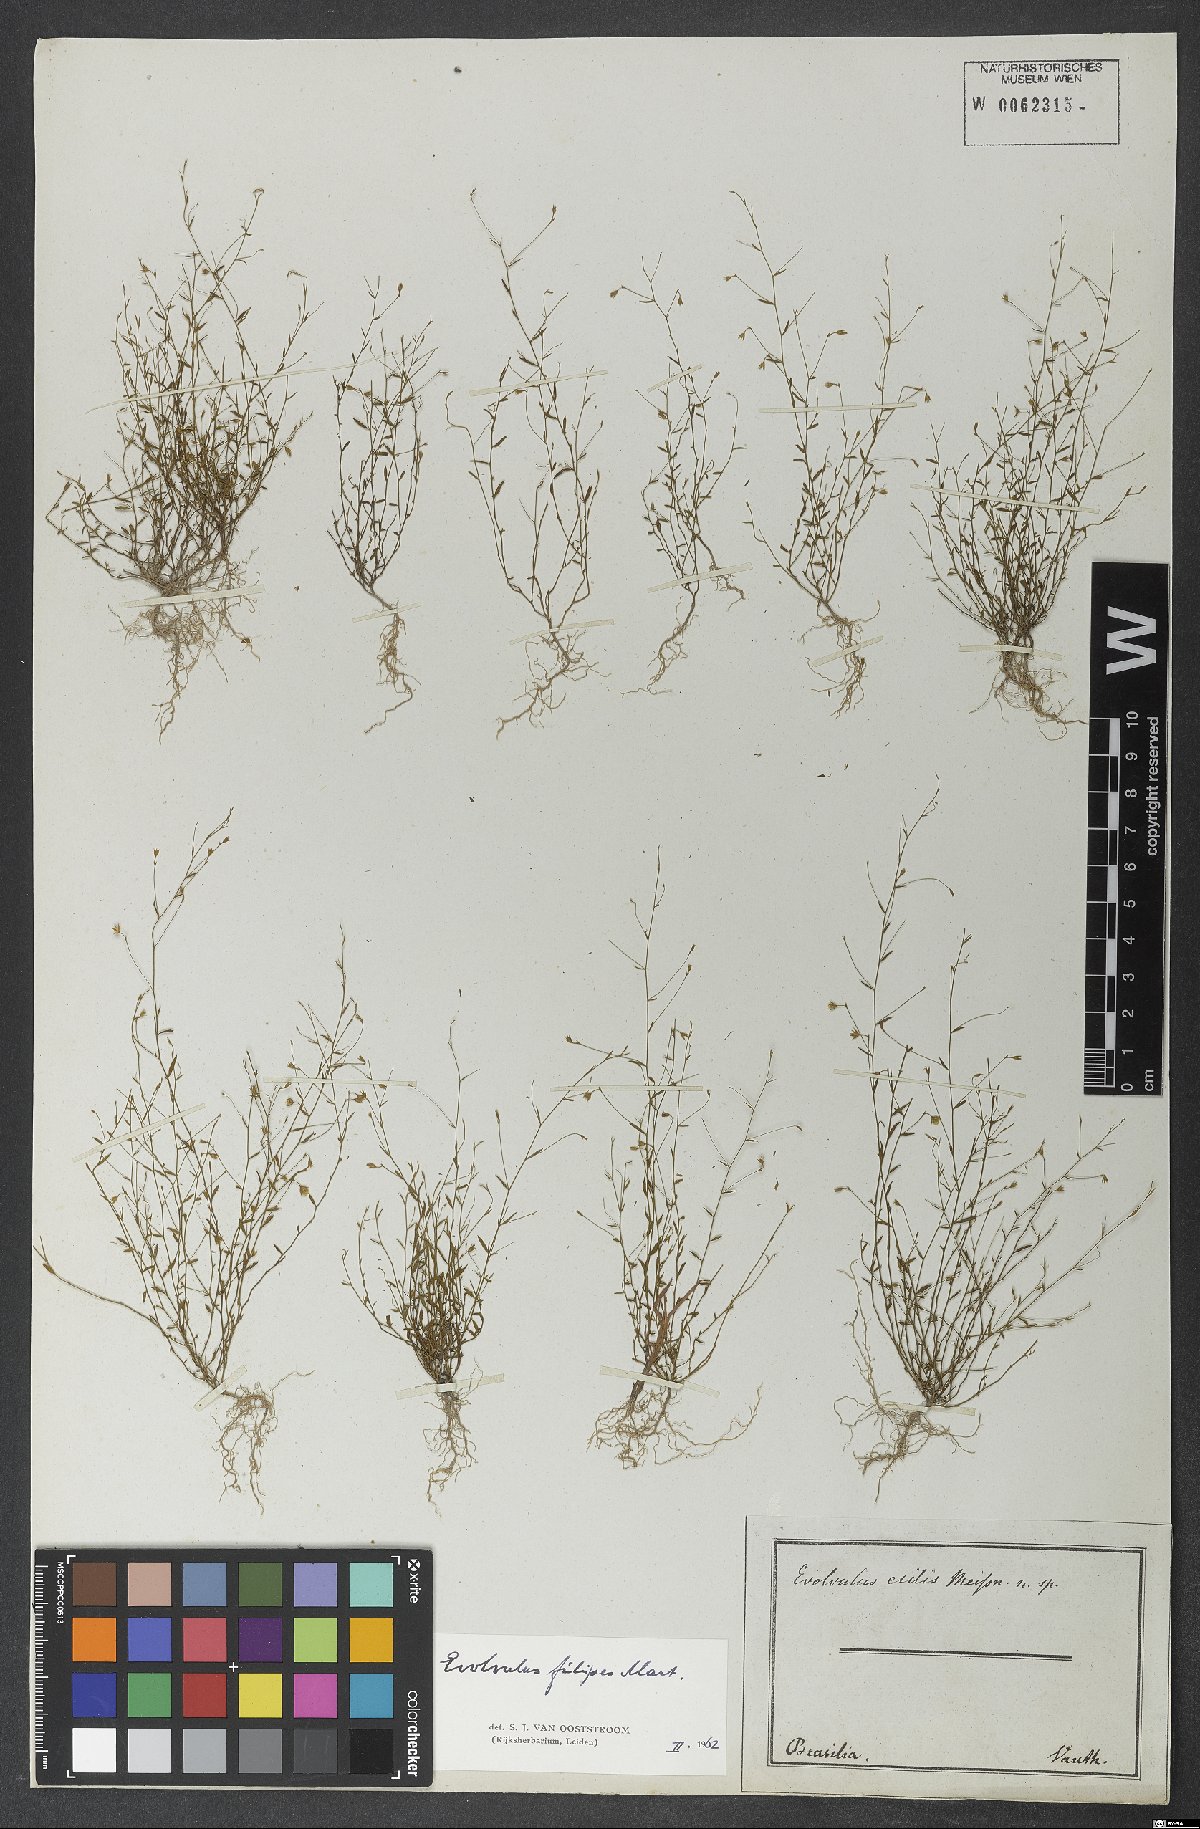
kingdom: Plantae
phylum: Tracheophyta
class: Magnoliopsida
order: Solanales
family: Convolvulaceae
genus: Evolvulus
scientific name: Evolvulus filipes
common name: Maryland dwarf morning-glory
